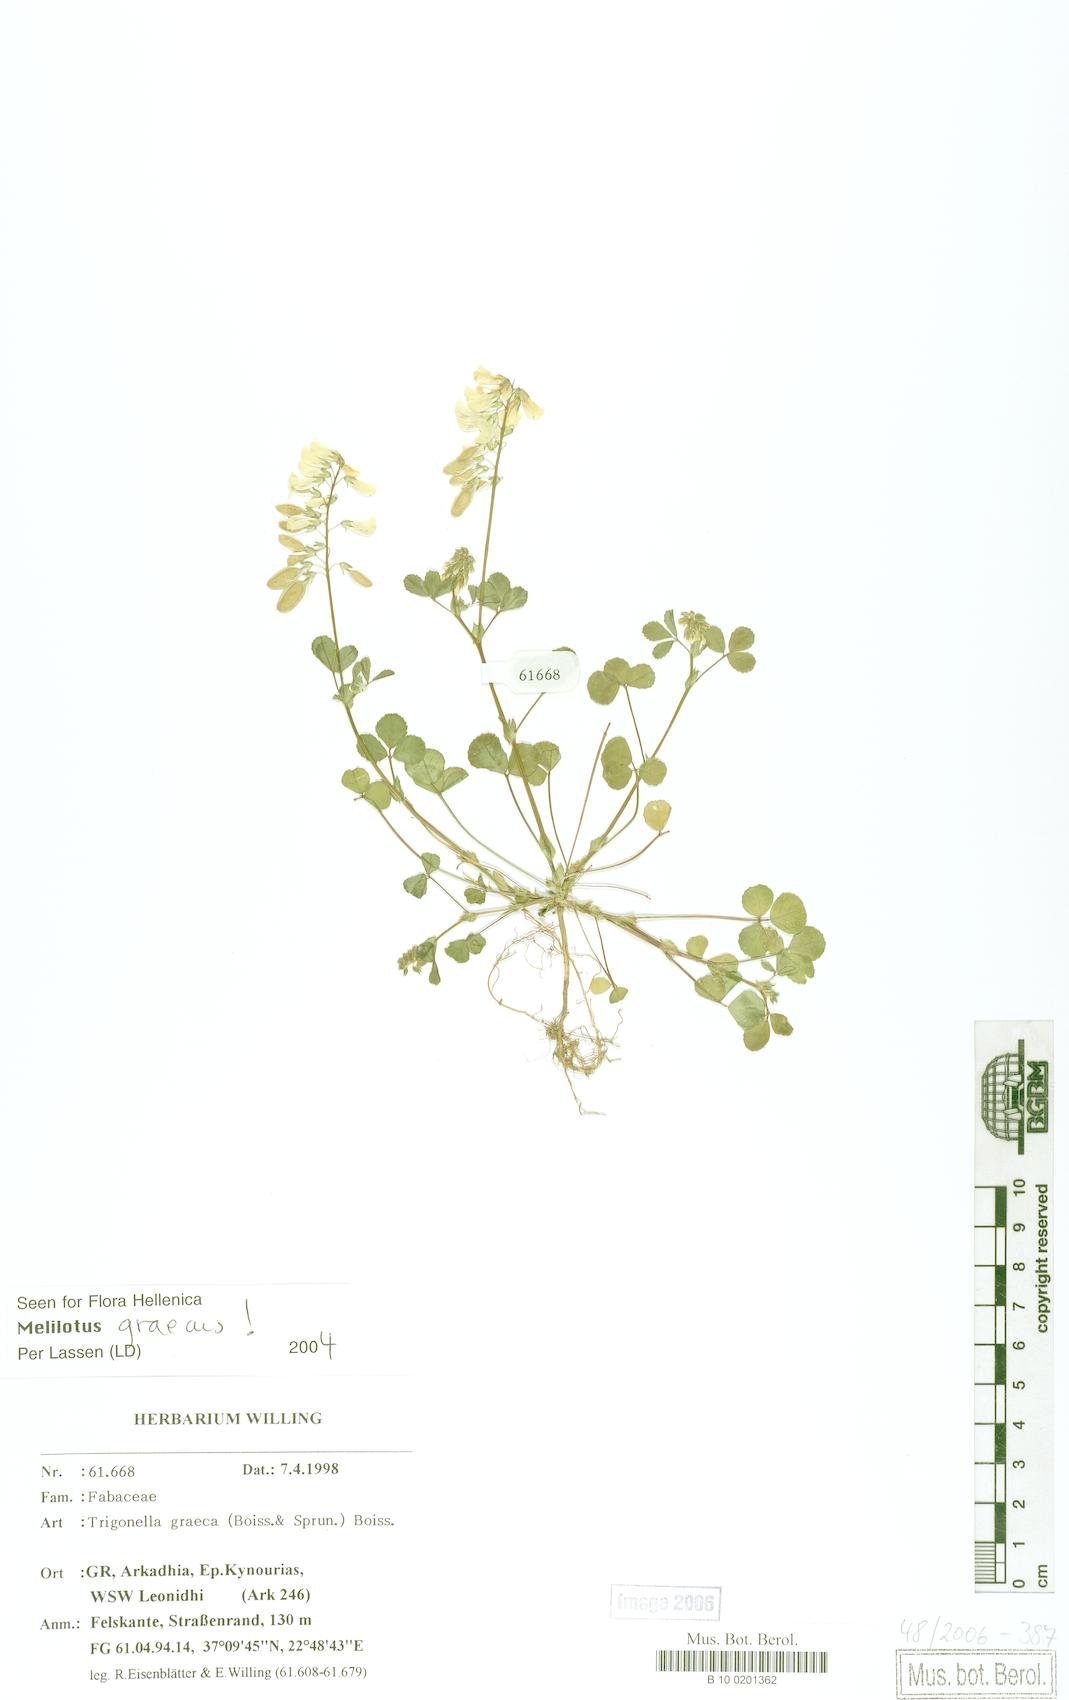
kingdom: Plantae
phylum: Tracheophyta
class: Magnoliopsida
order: Fabales
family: Fabaceae
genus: Trigonella
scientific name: Trigonella graeca
